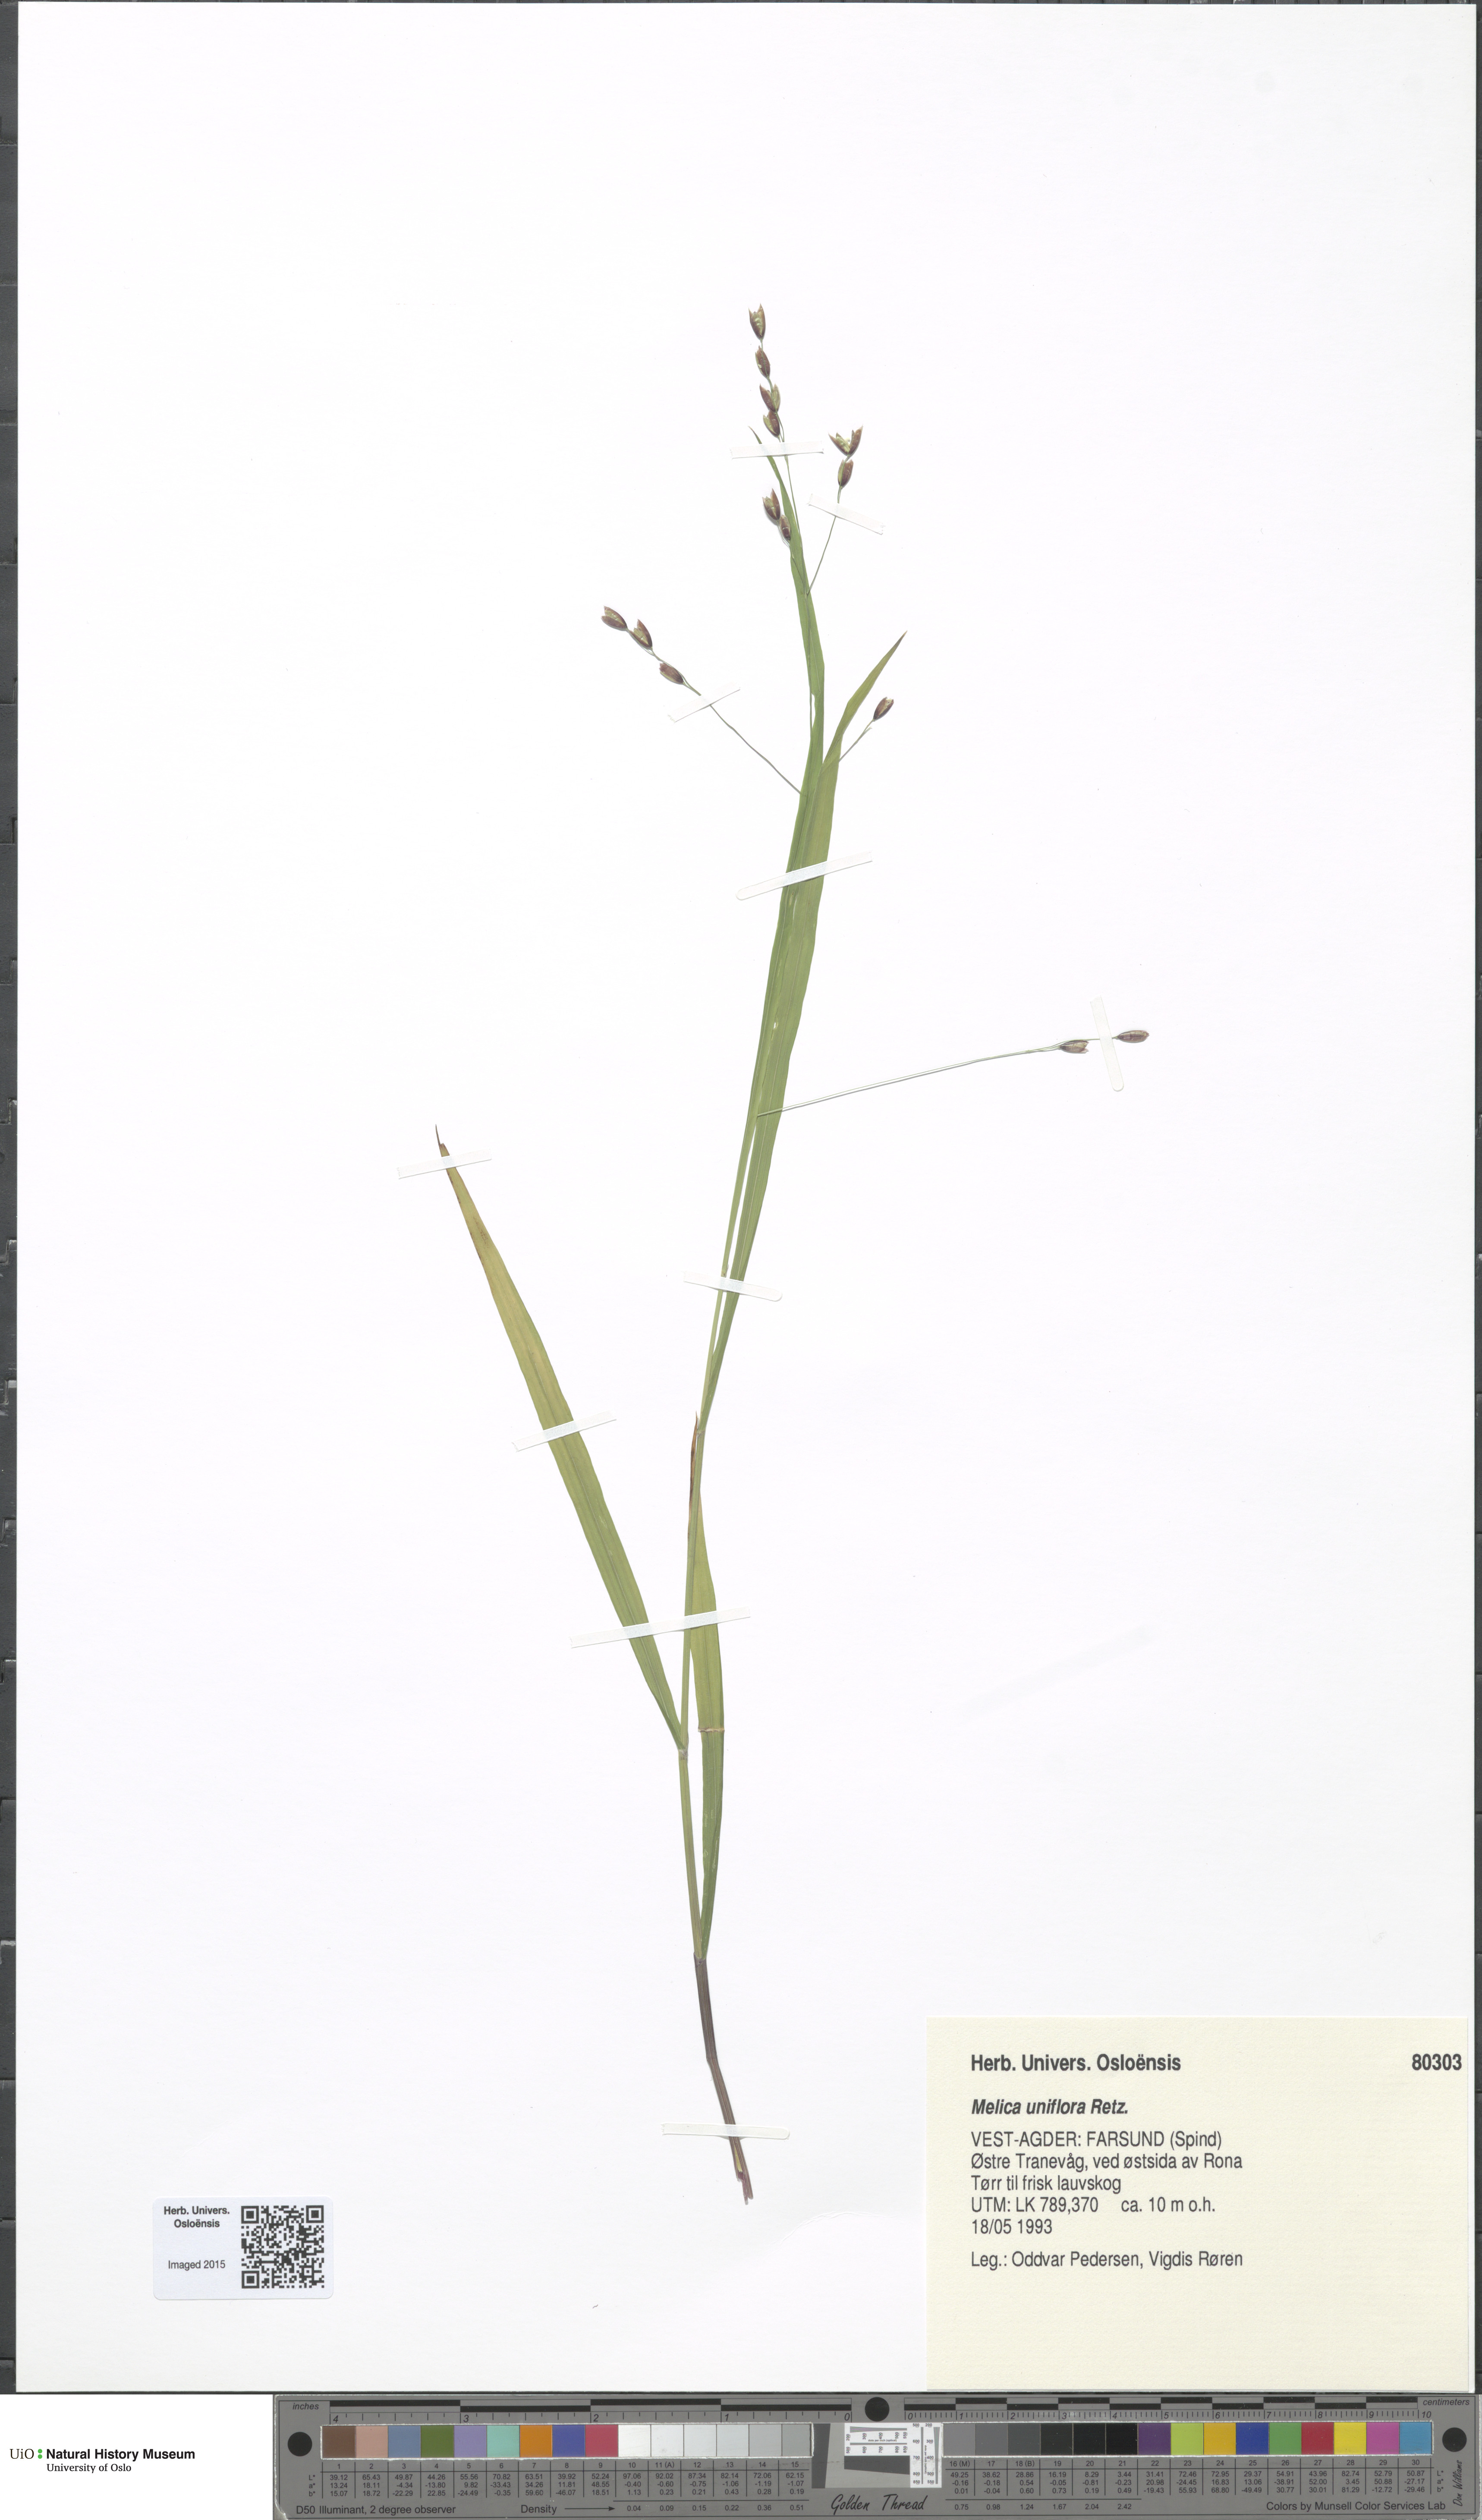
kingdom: Plantae
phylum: Tracheophyta
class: Liliopsida
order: Poales
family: Poaceae
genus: Melica
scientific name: Melica uniflora
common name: Wood melick
